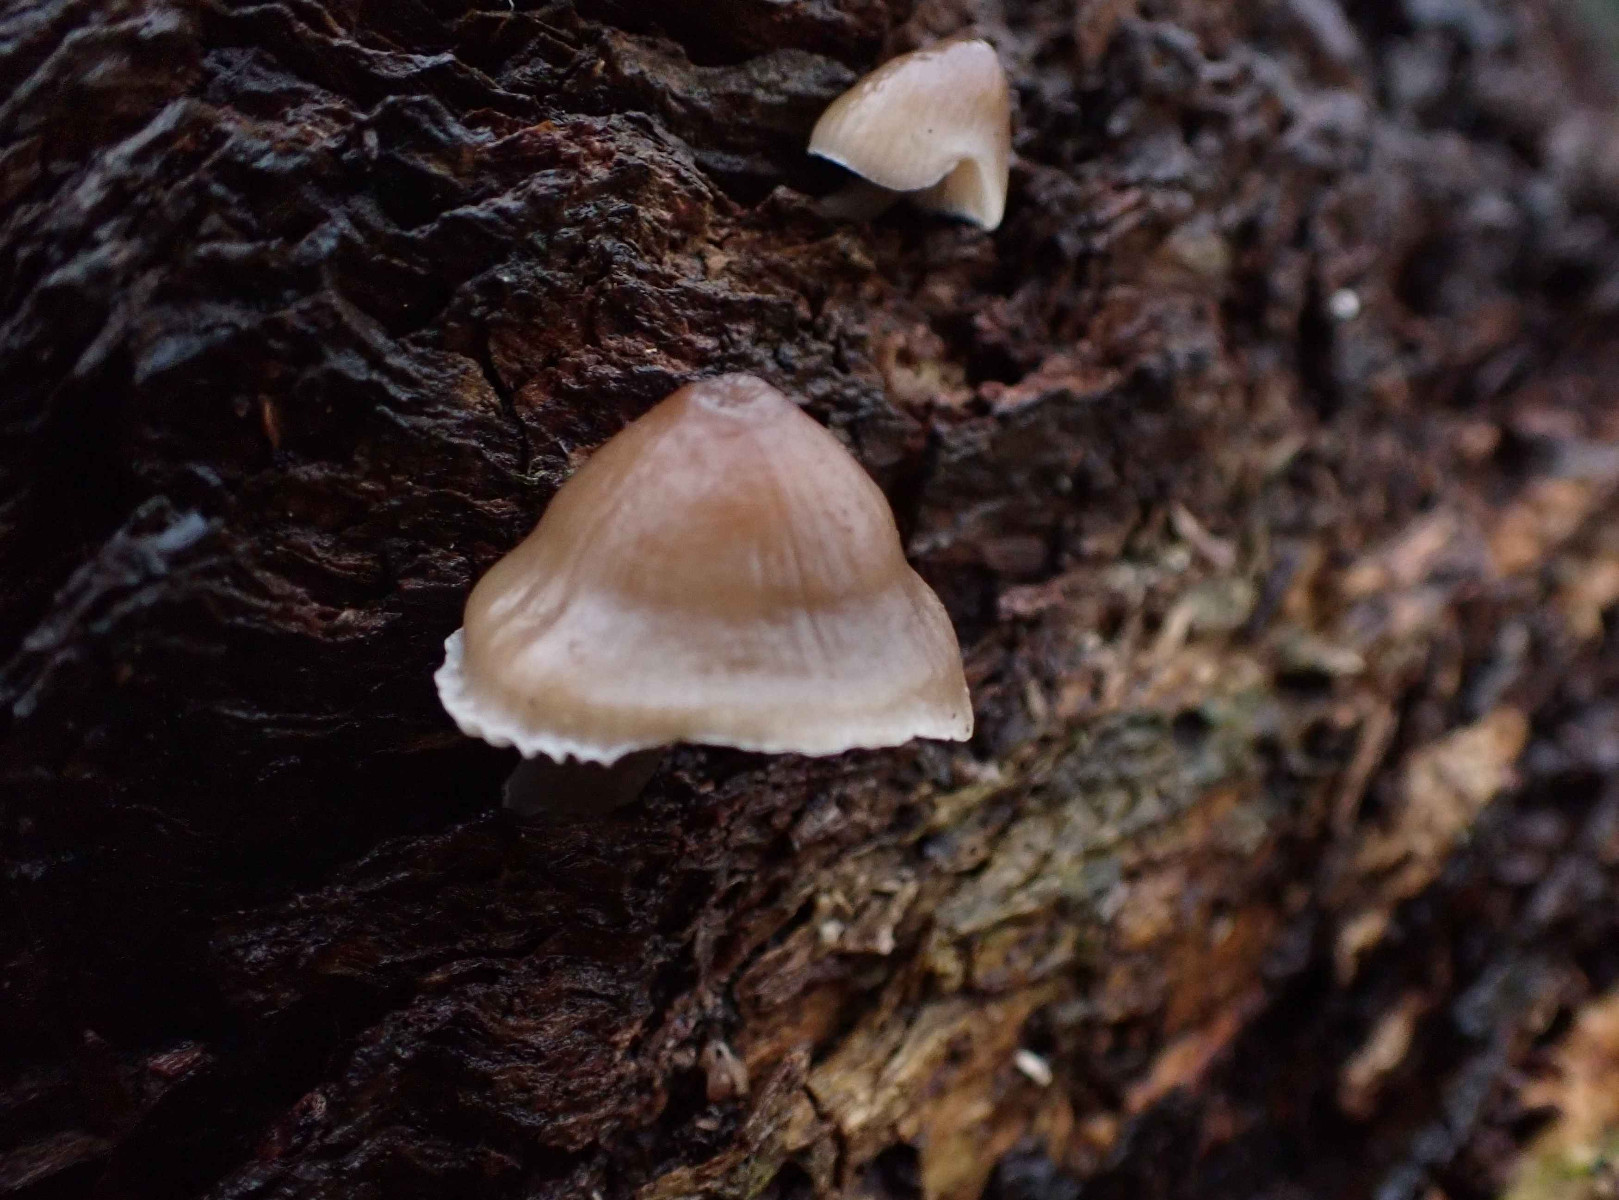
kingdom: Fungi
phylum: Basidiomycota
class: Agaricomycetes
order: Agaricales
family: Mycenaceae
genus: Mycena
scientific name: Mycena galericulata
